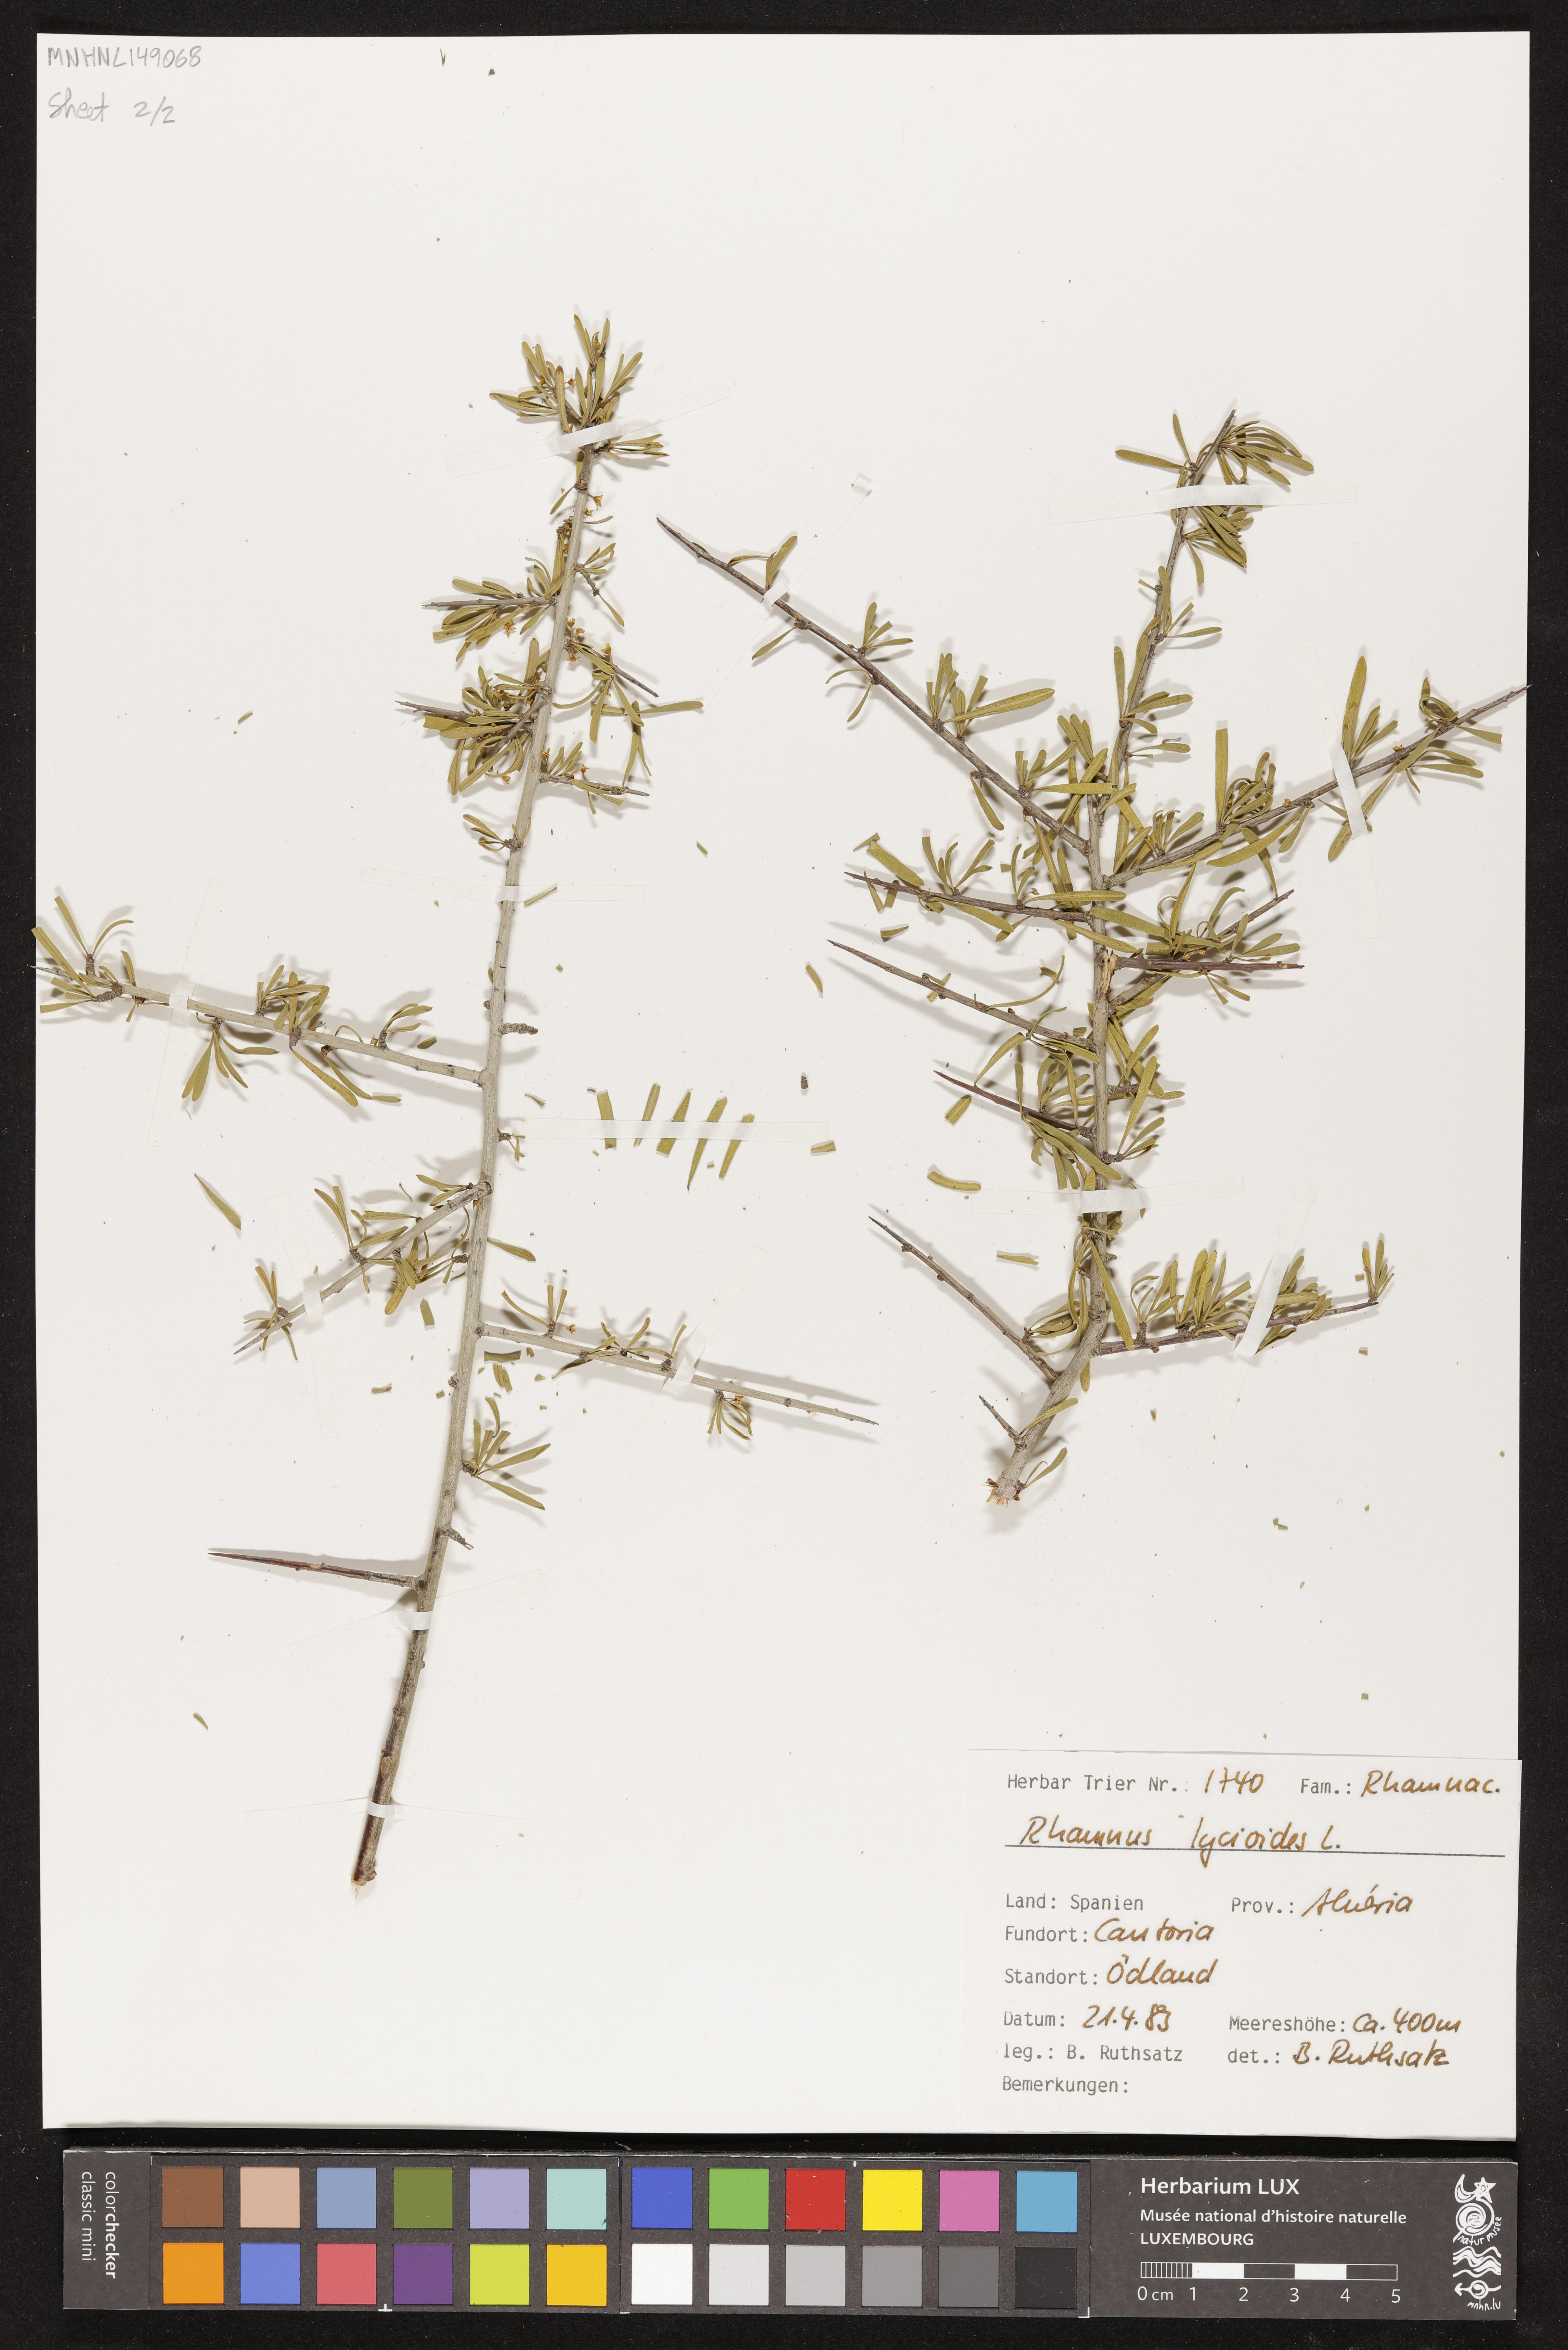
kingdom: Plantae
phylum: Tracheophyta
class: Magnoliopsida
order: Rosales
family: Rhamnaceae
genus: Rhamnus
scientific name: Rhamnus lycioides
